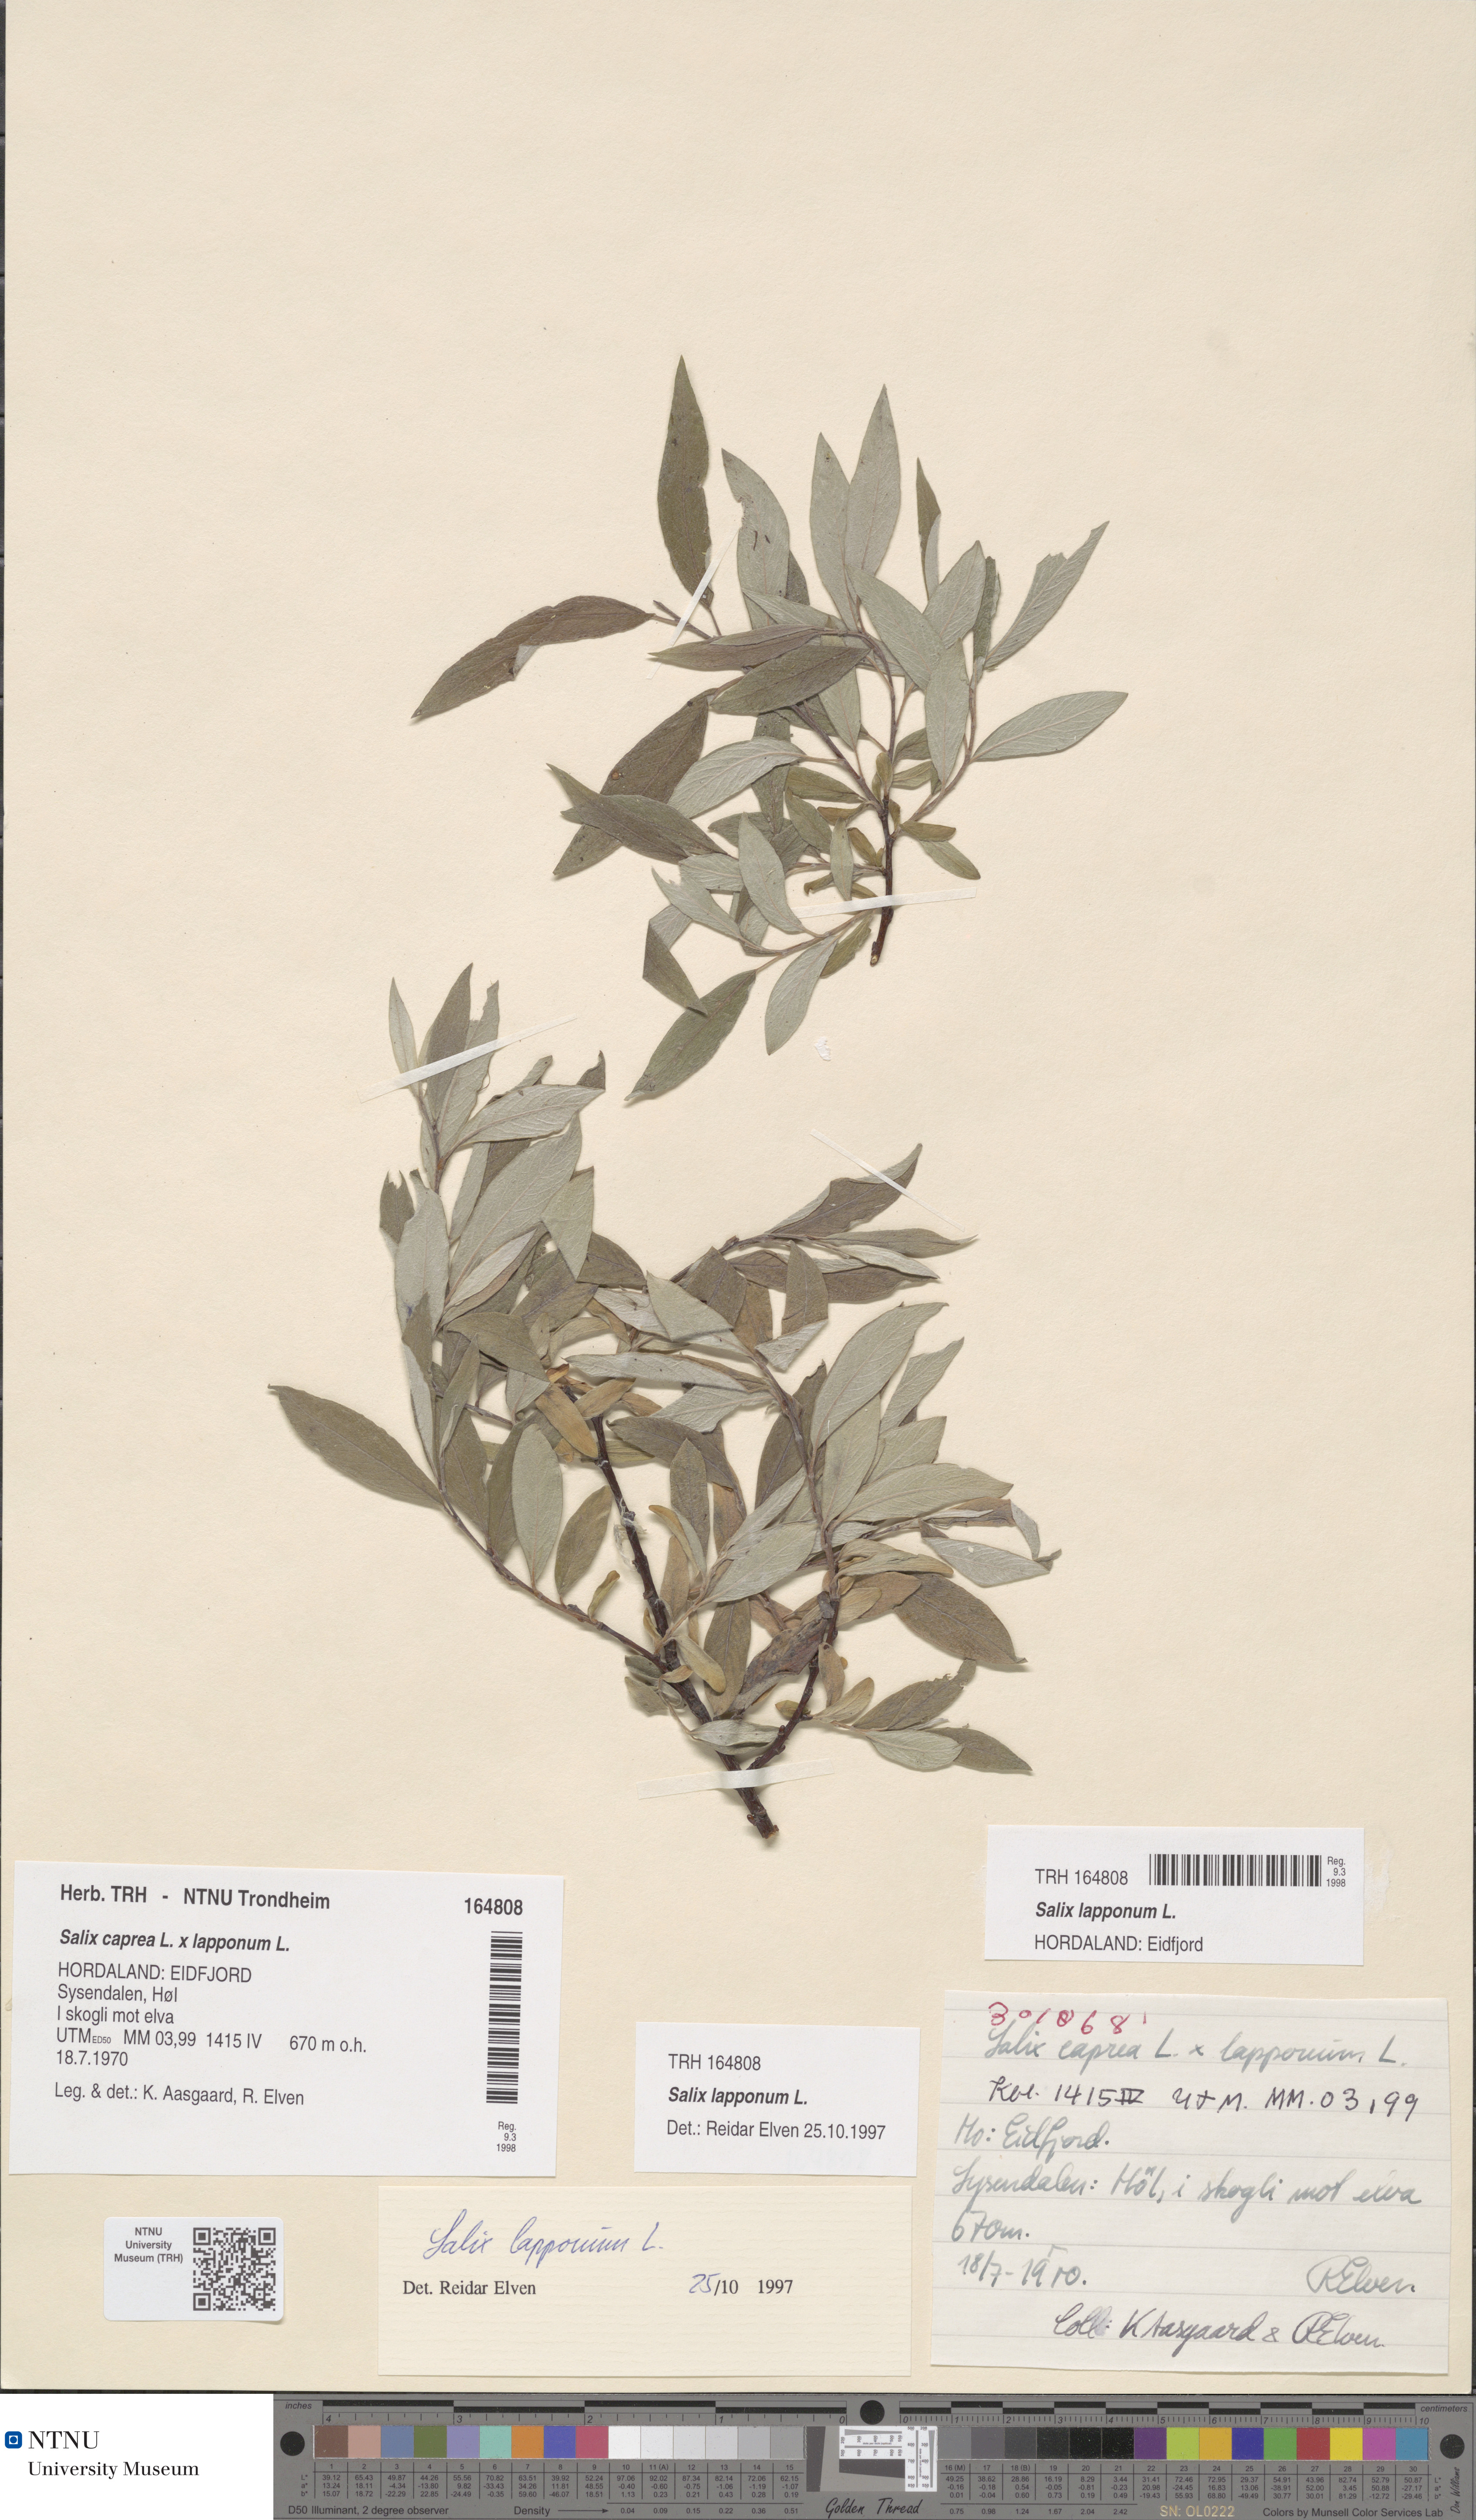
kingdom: Plantae
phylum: Tracheophyta
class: Magnoliopsida
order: Malpighiales
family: Salicaceae
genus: Salix
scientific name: Salix lapponum
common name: Downy willow
